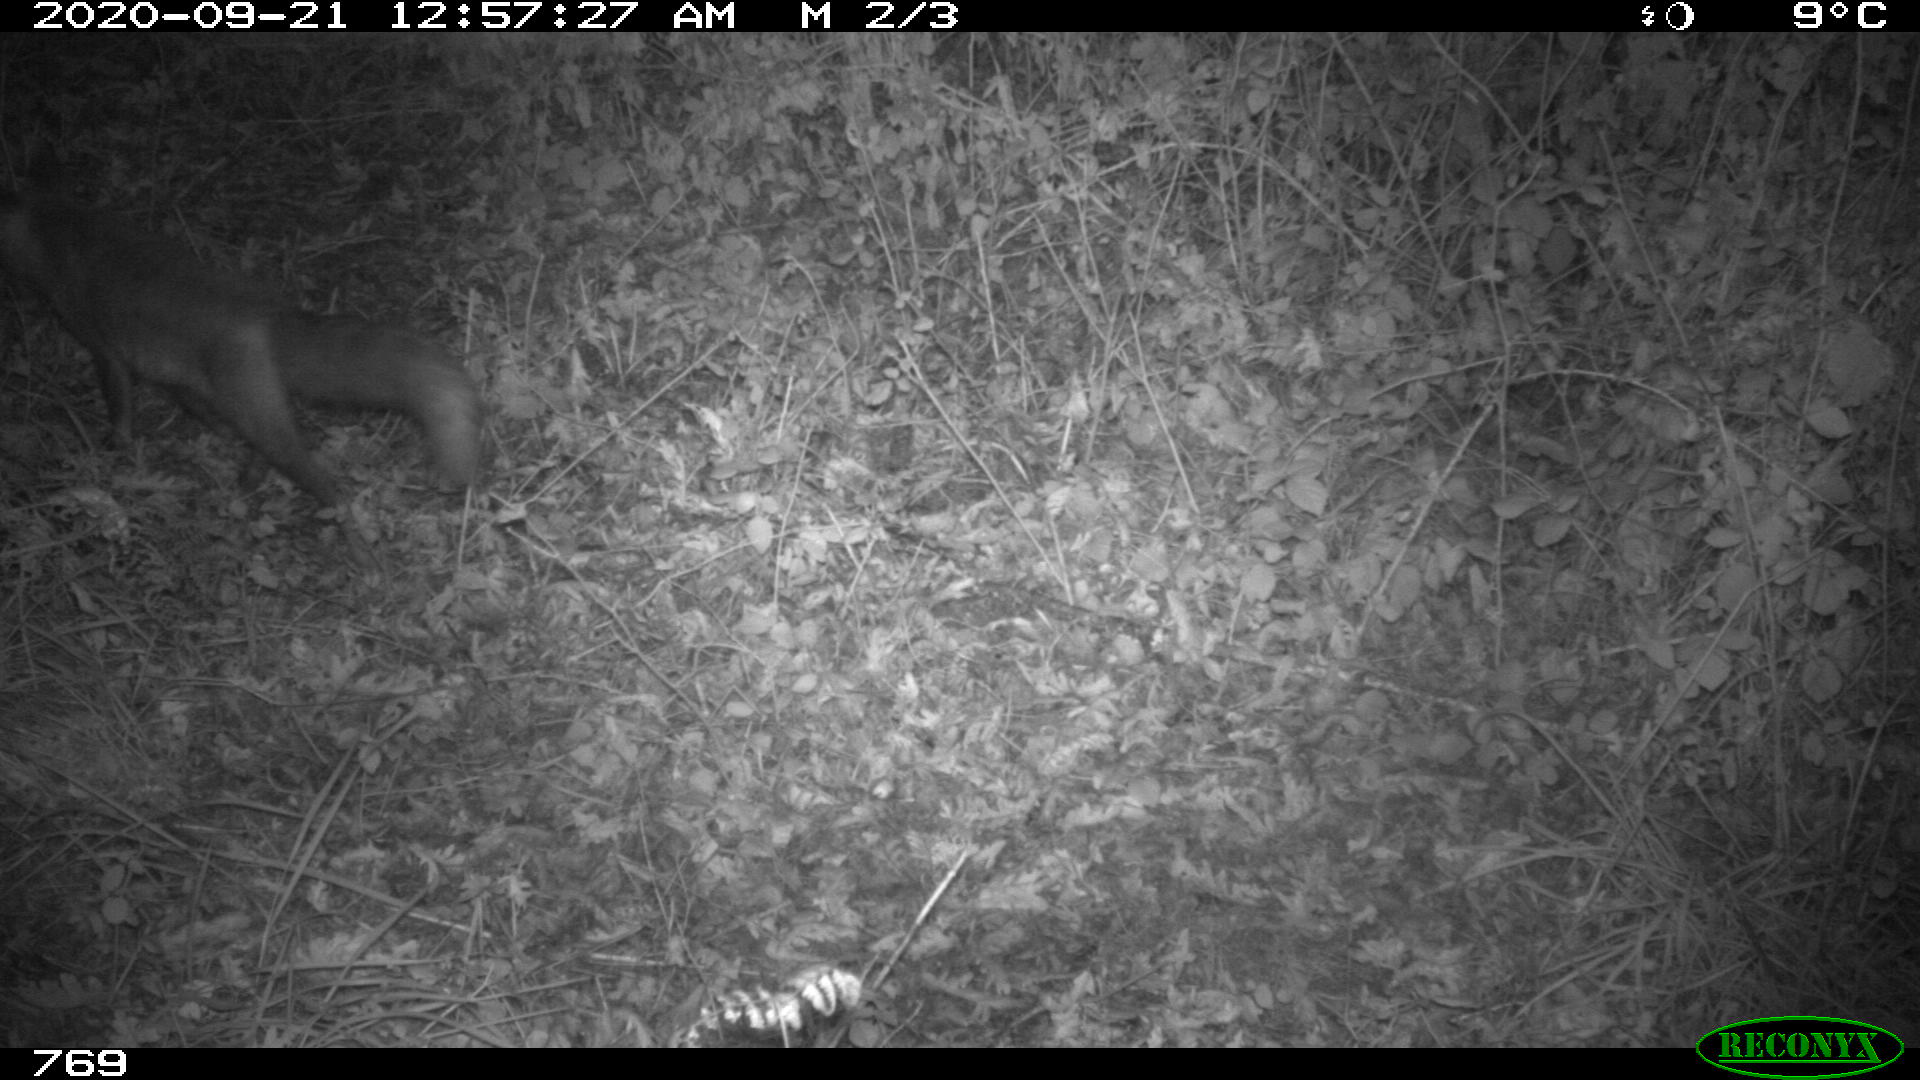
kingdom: Animalia
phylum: Chordata
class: Mammalia
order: Carnivora
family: Canidae
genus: Vulpes
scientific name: Vulpes vulpes
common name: Red fox
